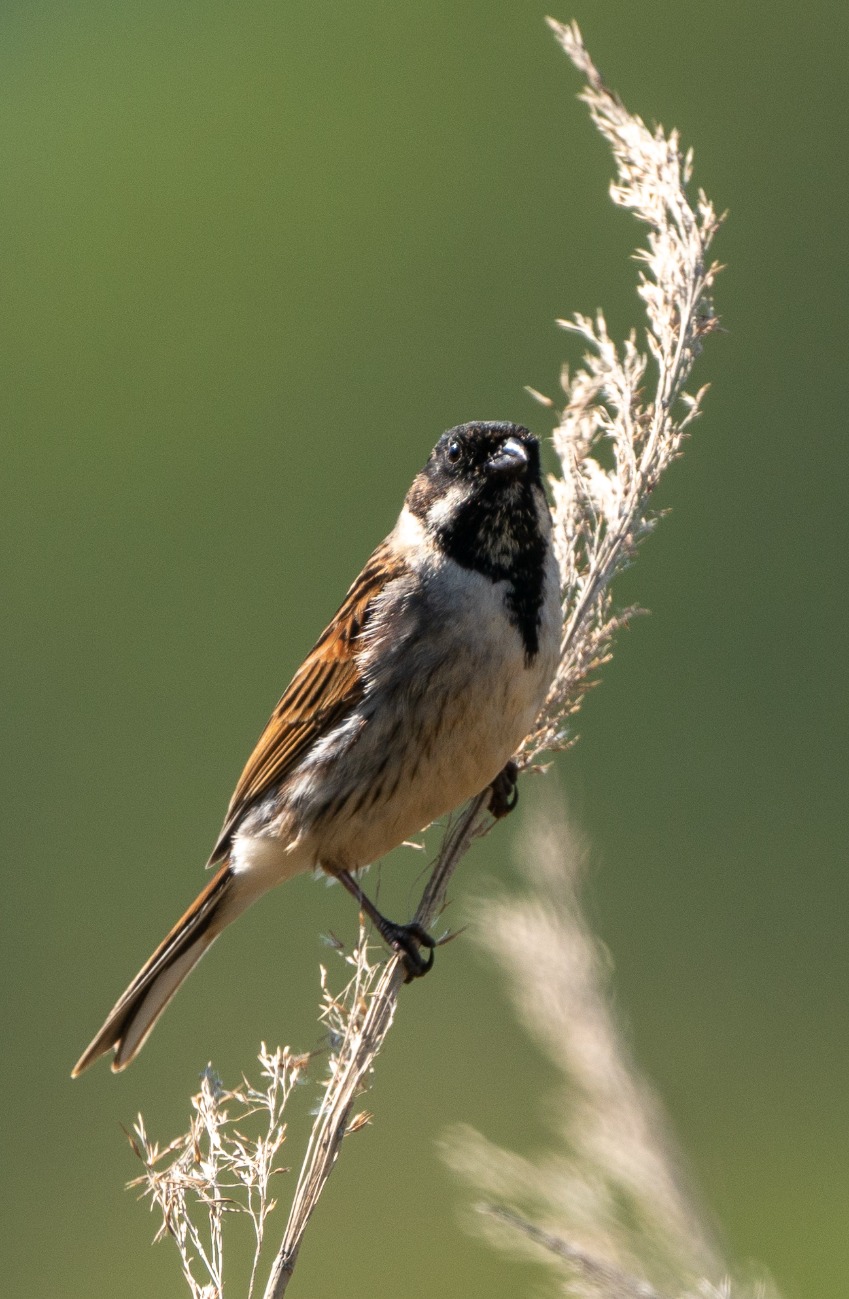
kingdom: Animalia
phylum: Chordata
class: Aves
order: Passeriformes
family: Emberizidae
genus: Emberiza
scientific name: Emberiza schoeniclus
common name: Rørspurv
